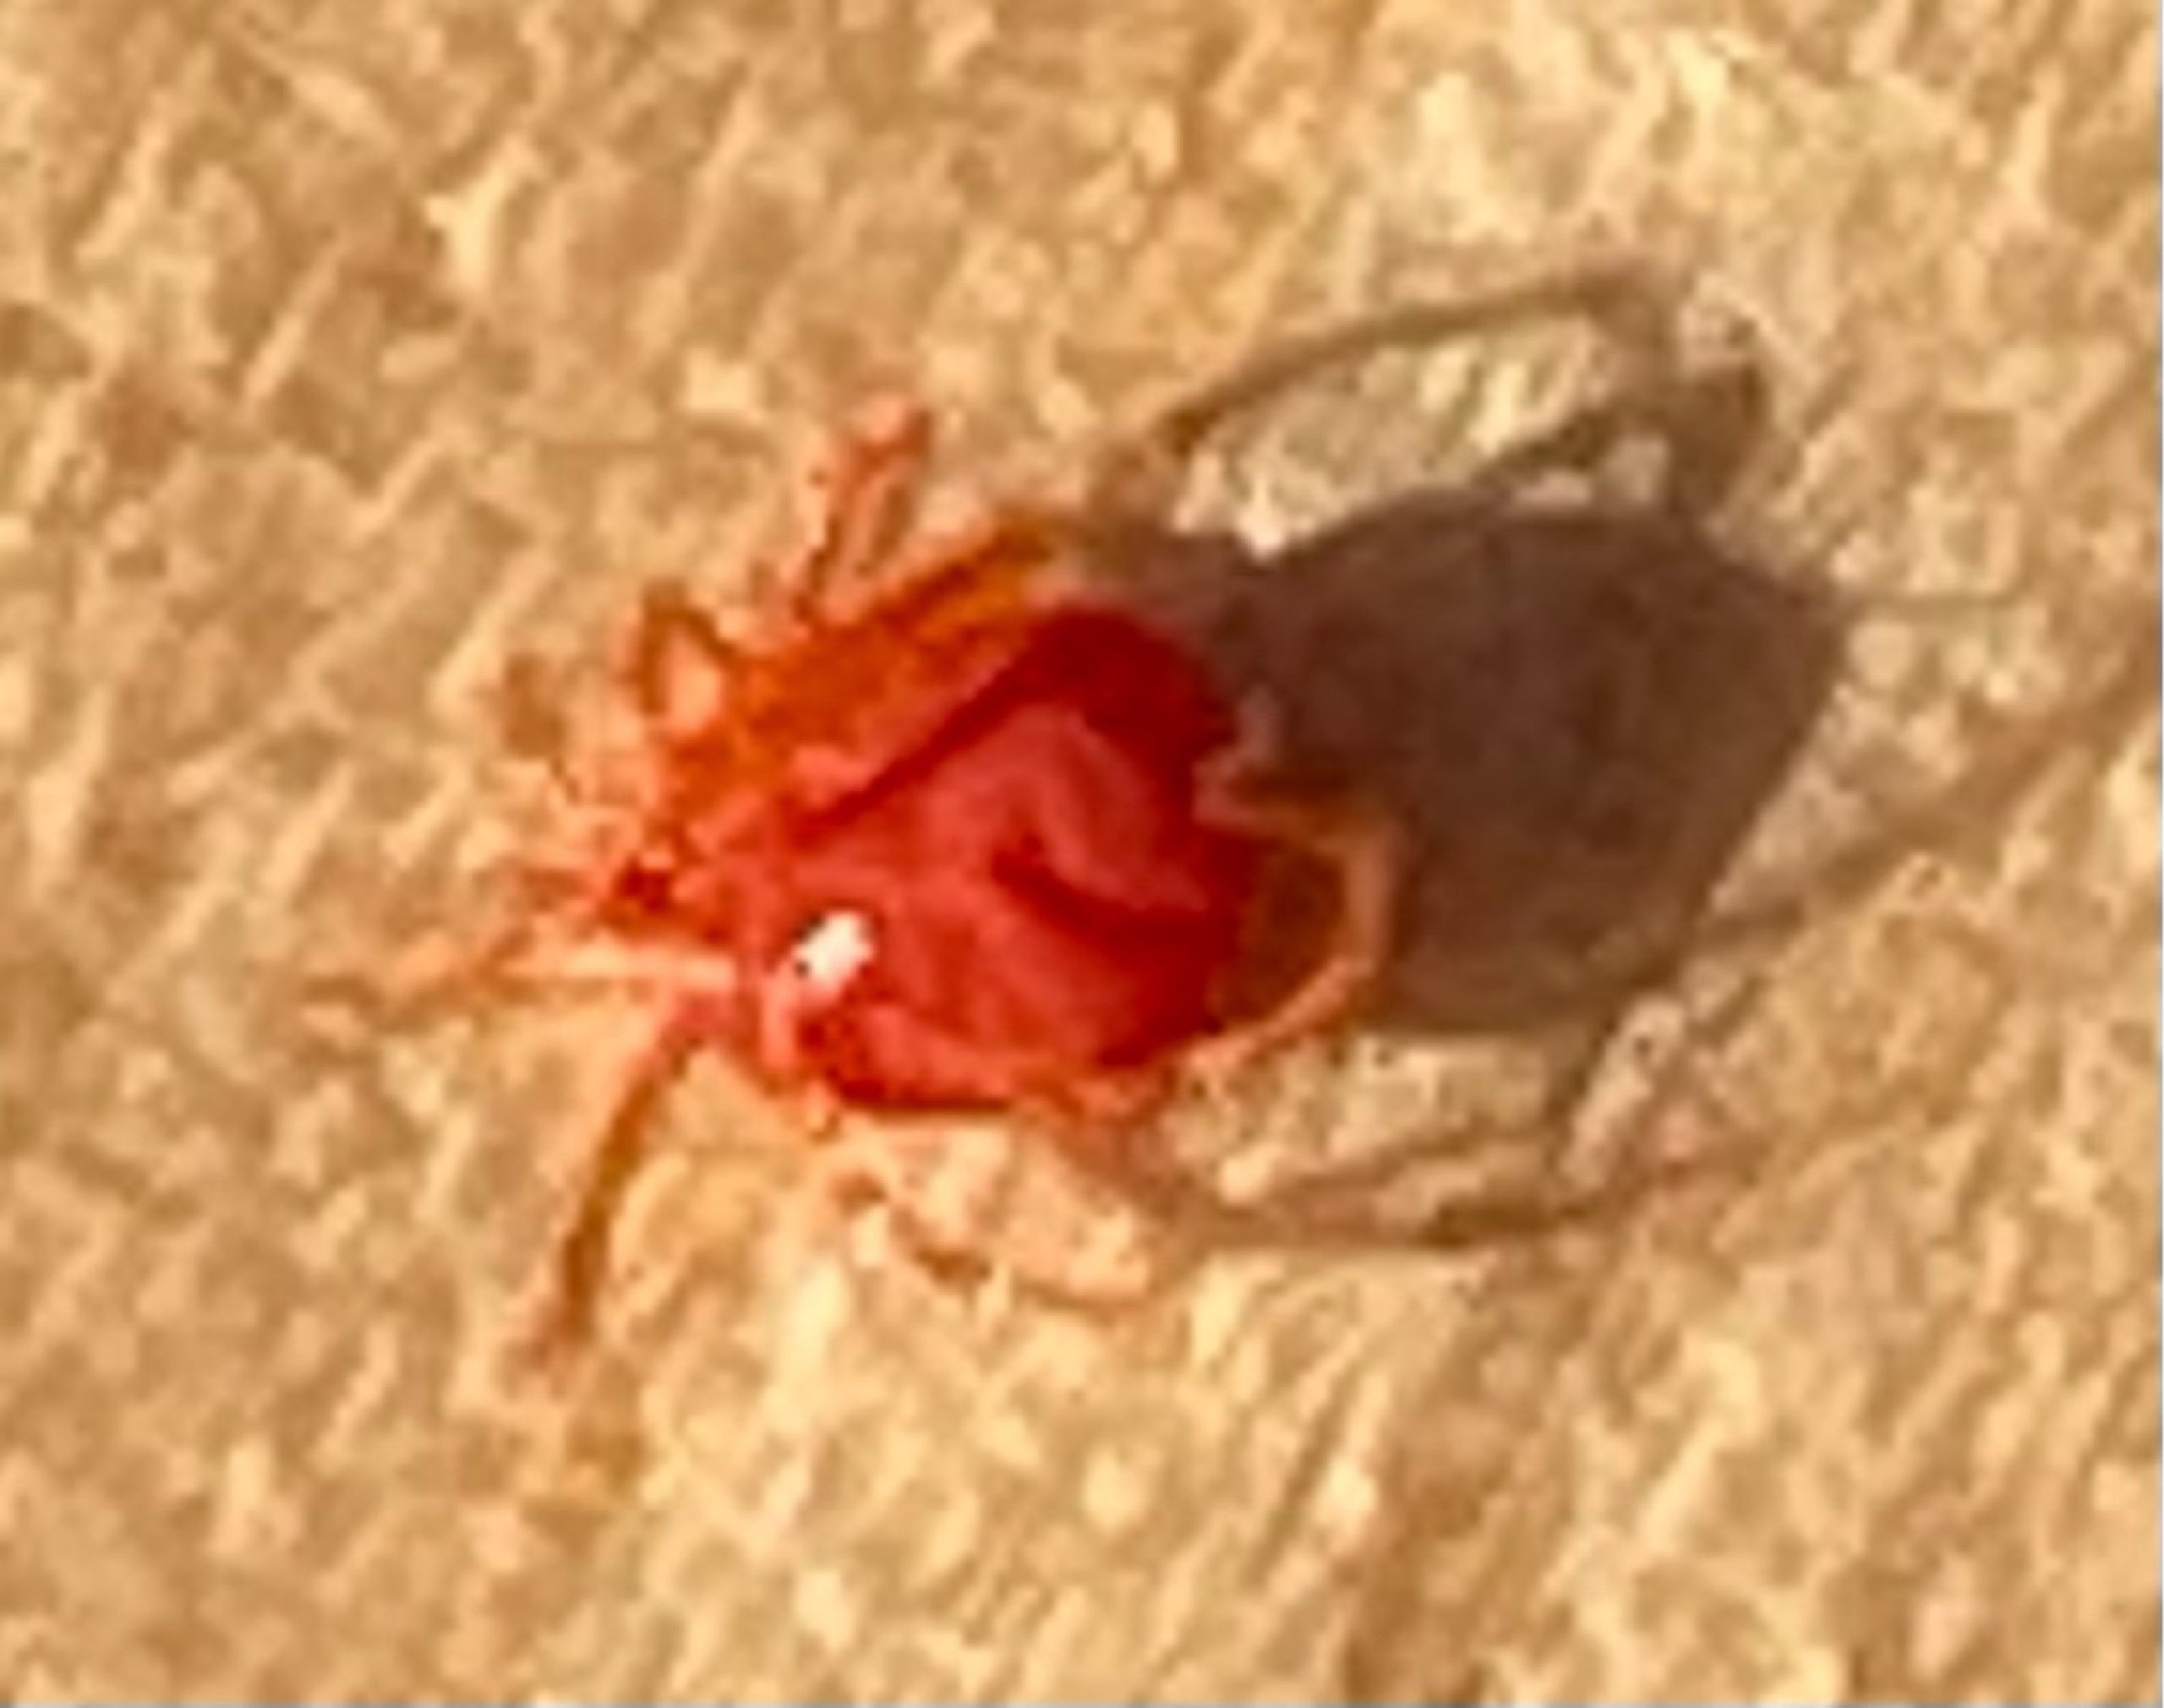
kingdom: Animalia
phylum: Arthropoda
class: Arachnida
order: Trombidiformes
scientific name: Trombidiformes
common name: Fløjlsmider og rovmider
